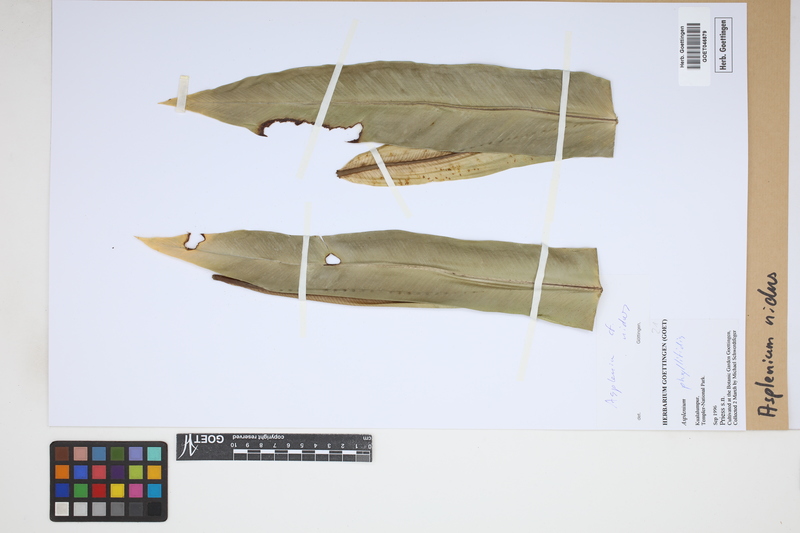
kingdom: Plantae
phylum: Tracheophyta
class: Polypodiopsida
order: Polypodiales
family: Aspleniaceae
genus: Asplenium
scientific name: Asplenium nidus
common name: Bird's-nest fern
